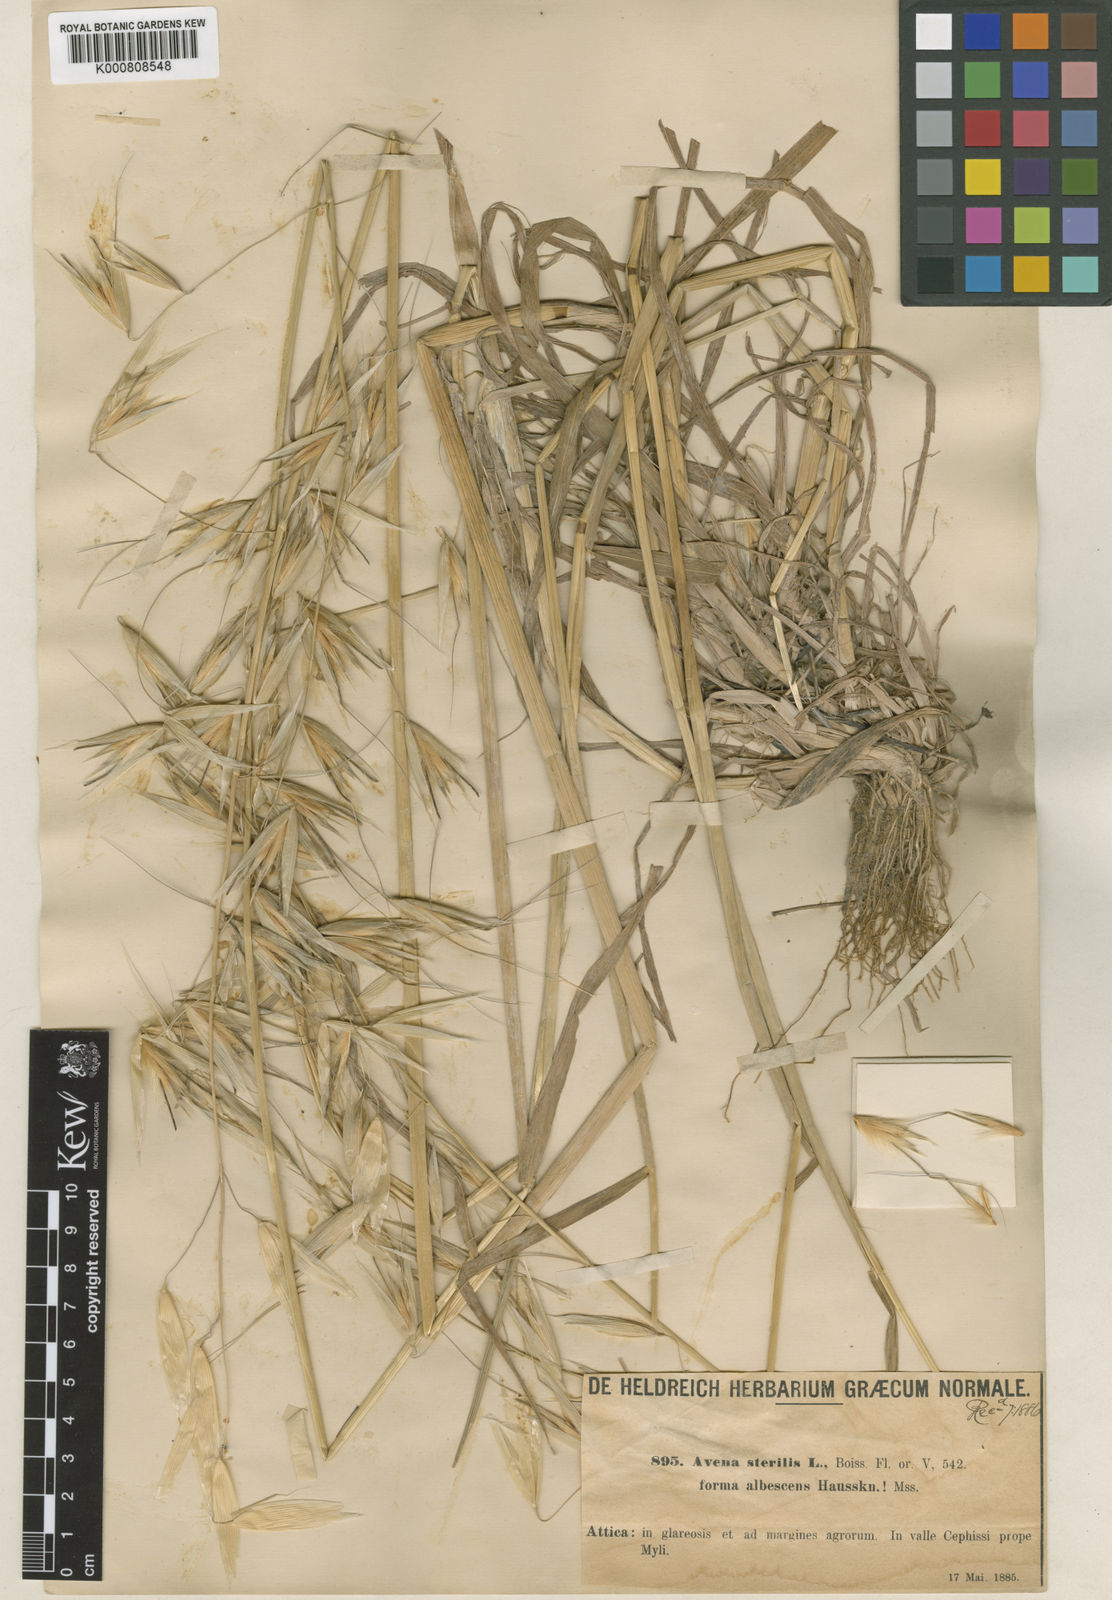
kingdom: Plantae
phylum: Tracheophyta
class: Liliopsida
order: Poales
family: Poaceae
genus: Avena
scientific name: Avena sterilis
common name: Animated oat
